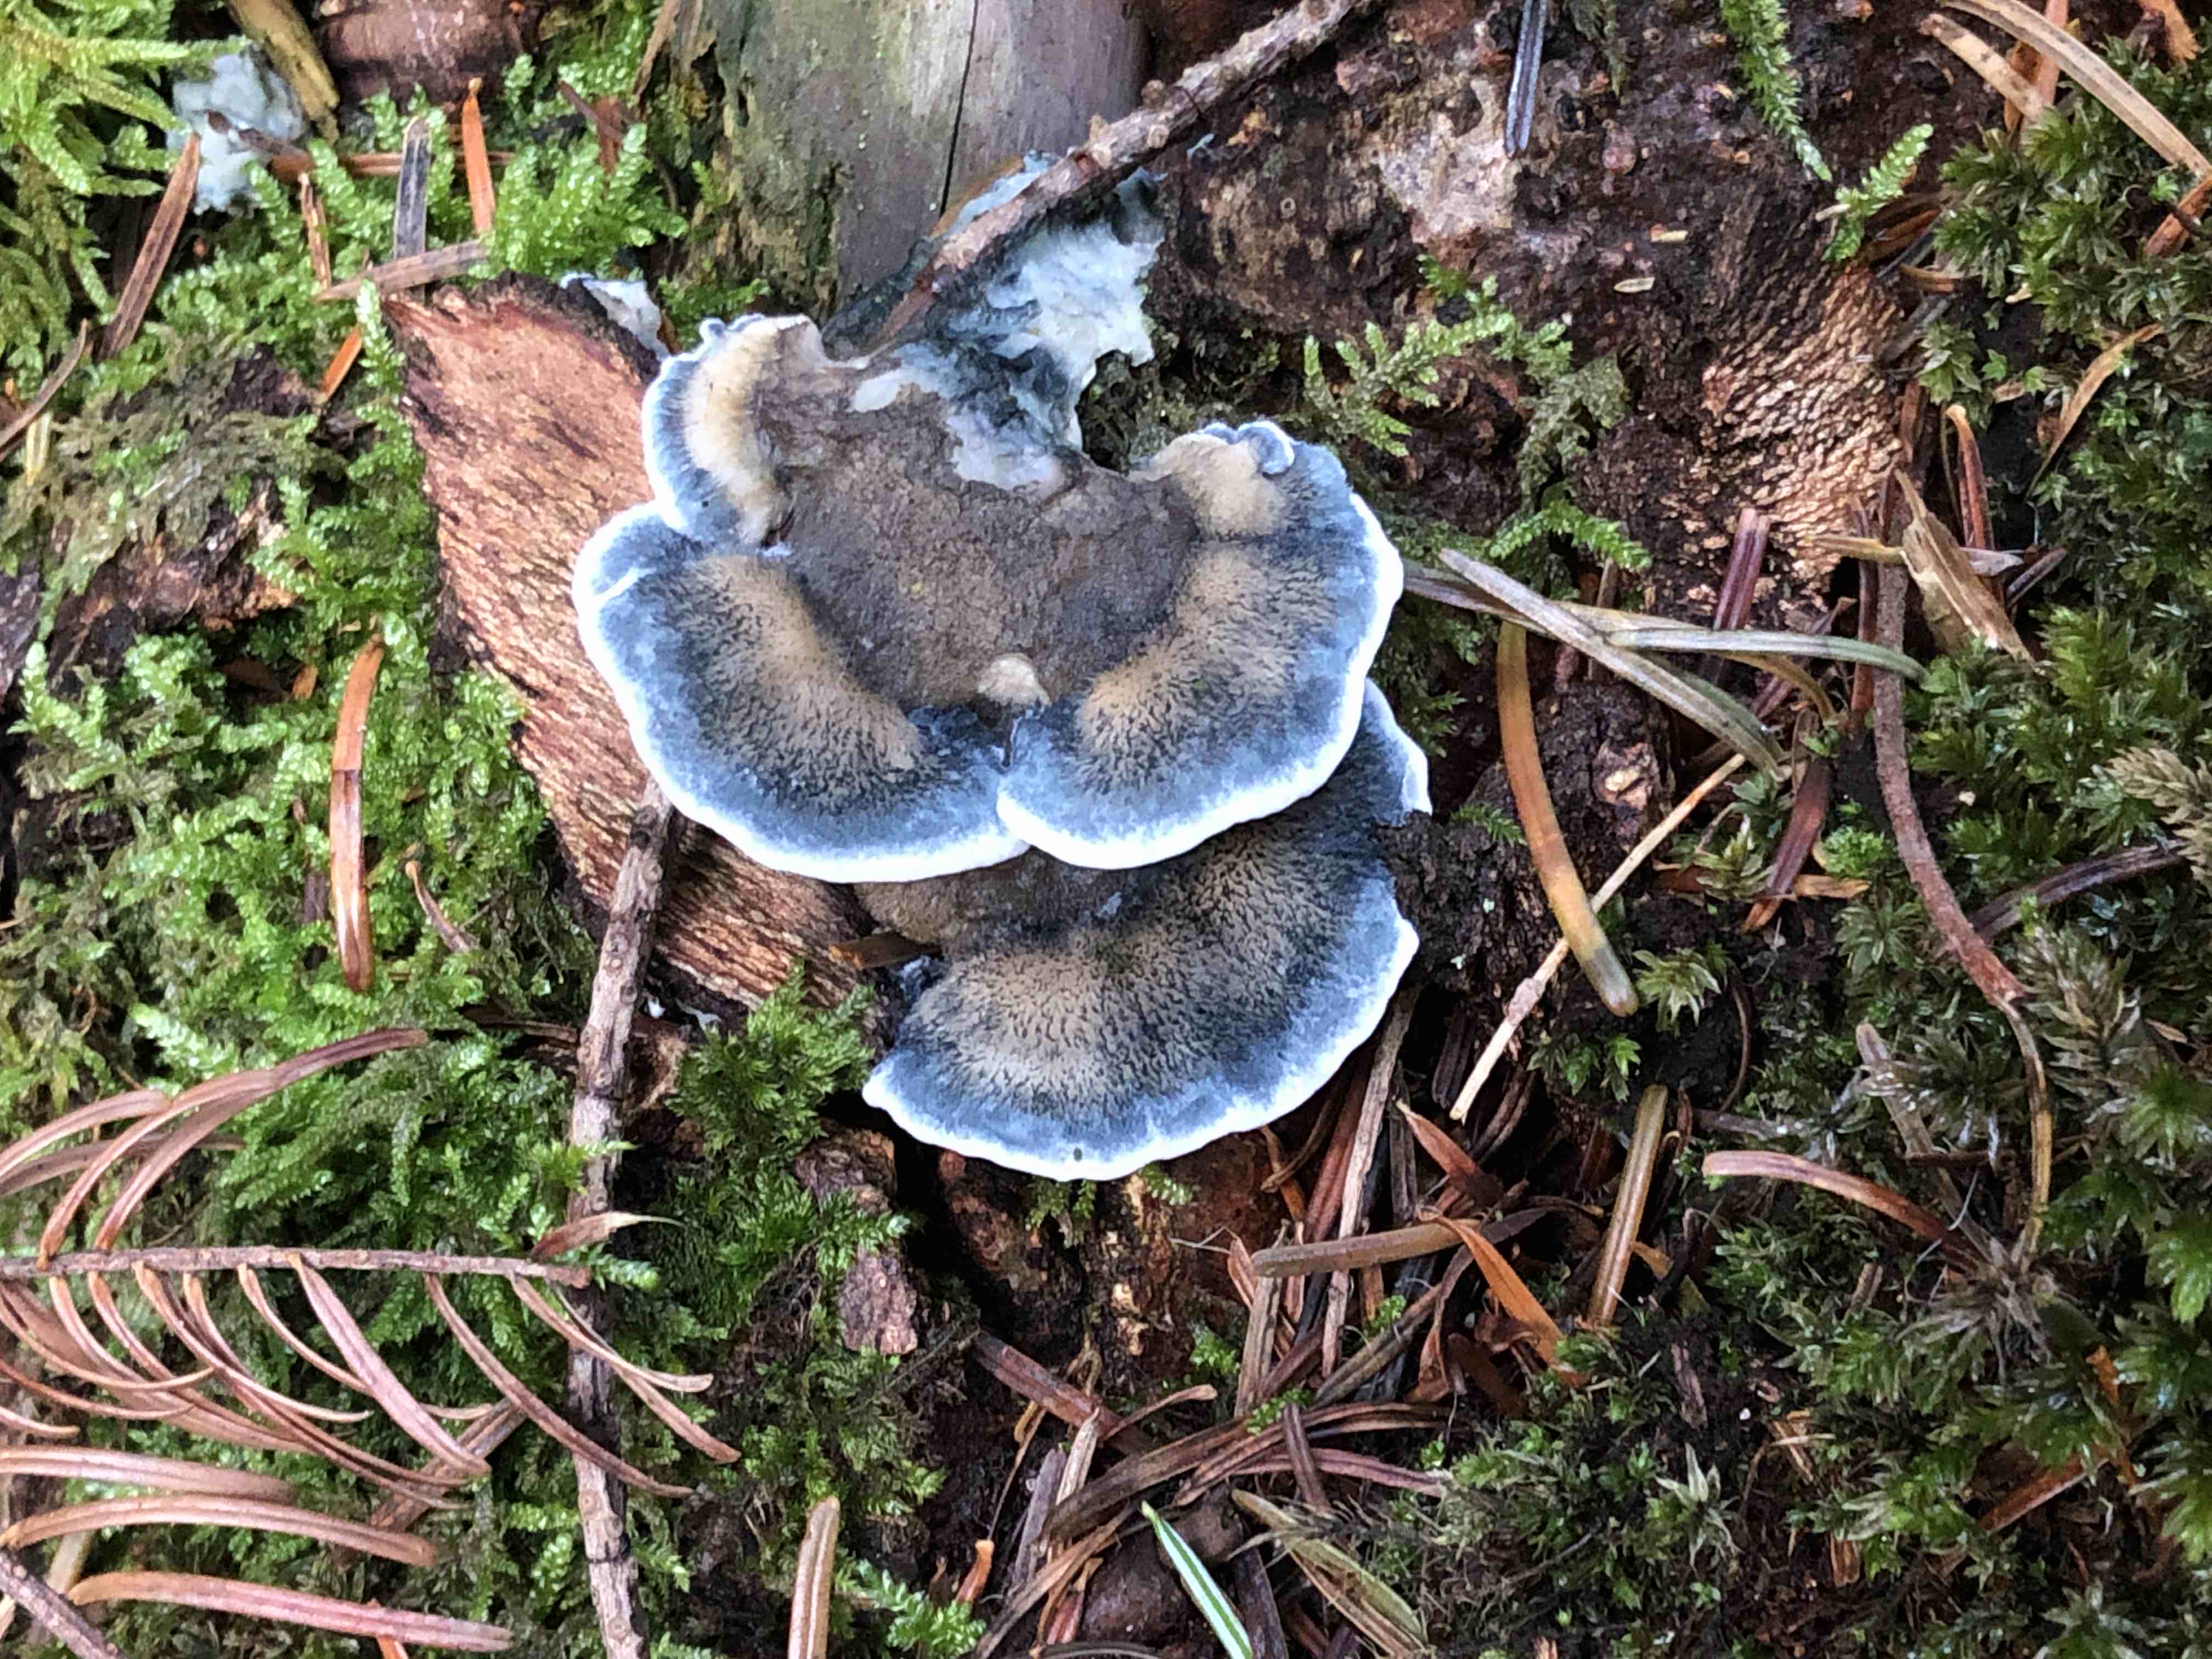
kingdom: Fungi
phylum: Basidiomycota
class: Agaricomycetes
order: Polyporales
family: Polyporaceae
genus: Cyanosporus
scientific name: Cyanosporus caesius
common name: blålig kødporesvamp
